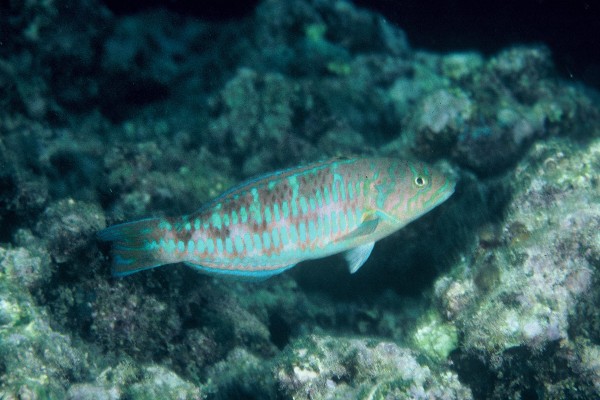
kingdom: Animalia
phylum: Chordata
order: Perciformes
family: Labridae
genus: Thalassoma
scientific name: Thalassoma trilobatum
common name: Christmas wrasse
